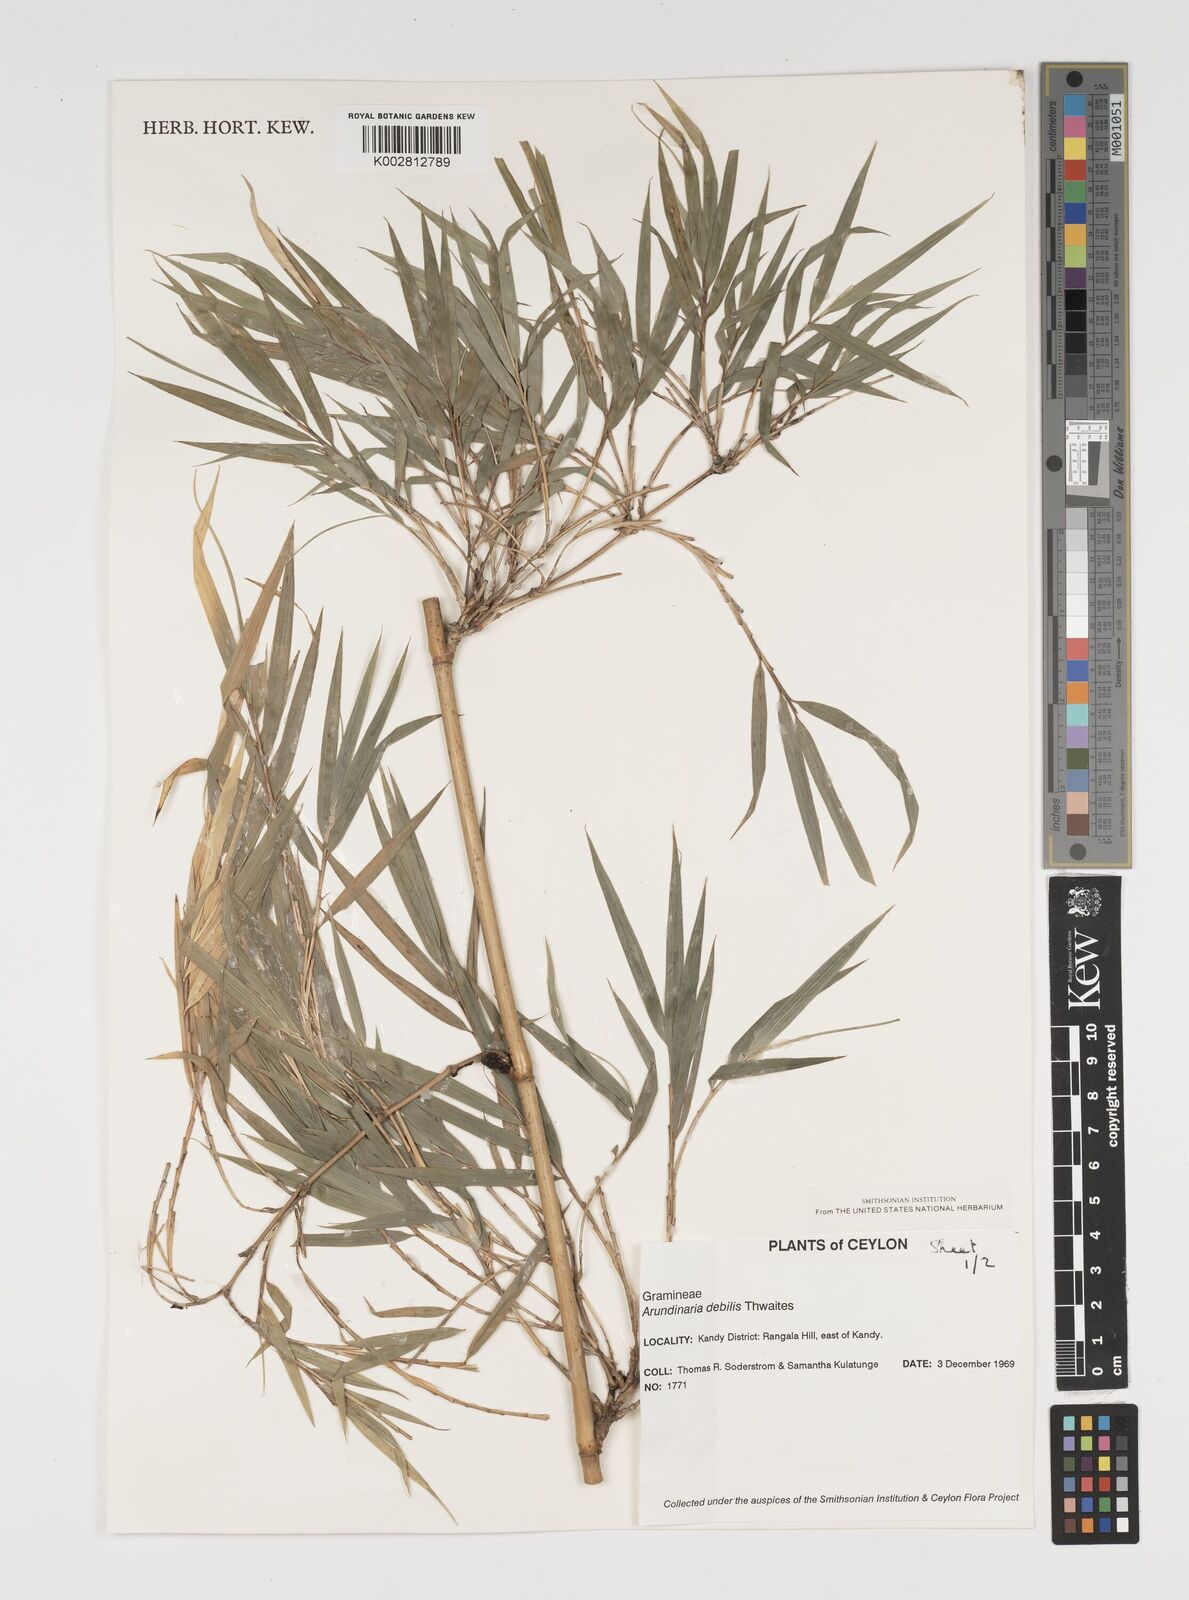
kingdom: Plantae
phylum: Tracheophyta
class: Liliopsida
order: Poales
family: Poaceae
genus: Kuruna
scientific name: Kuruna debilis
